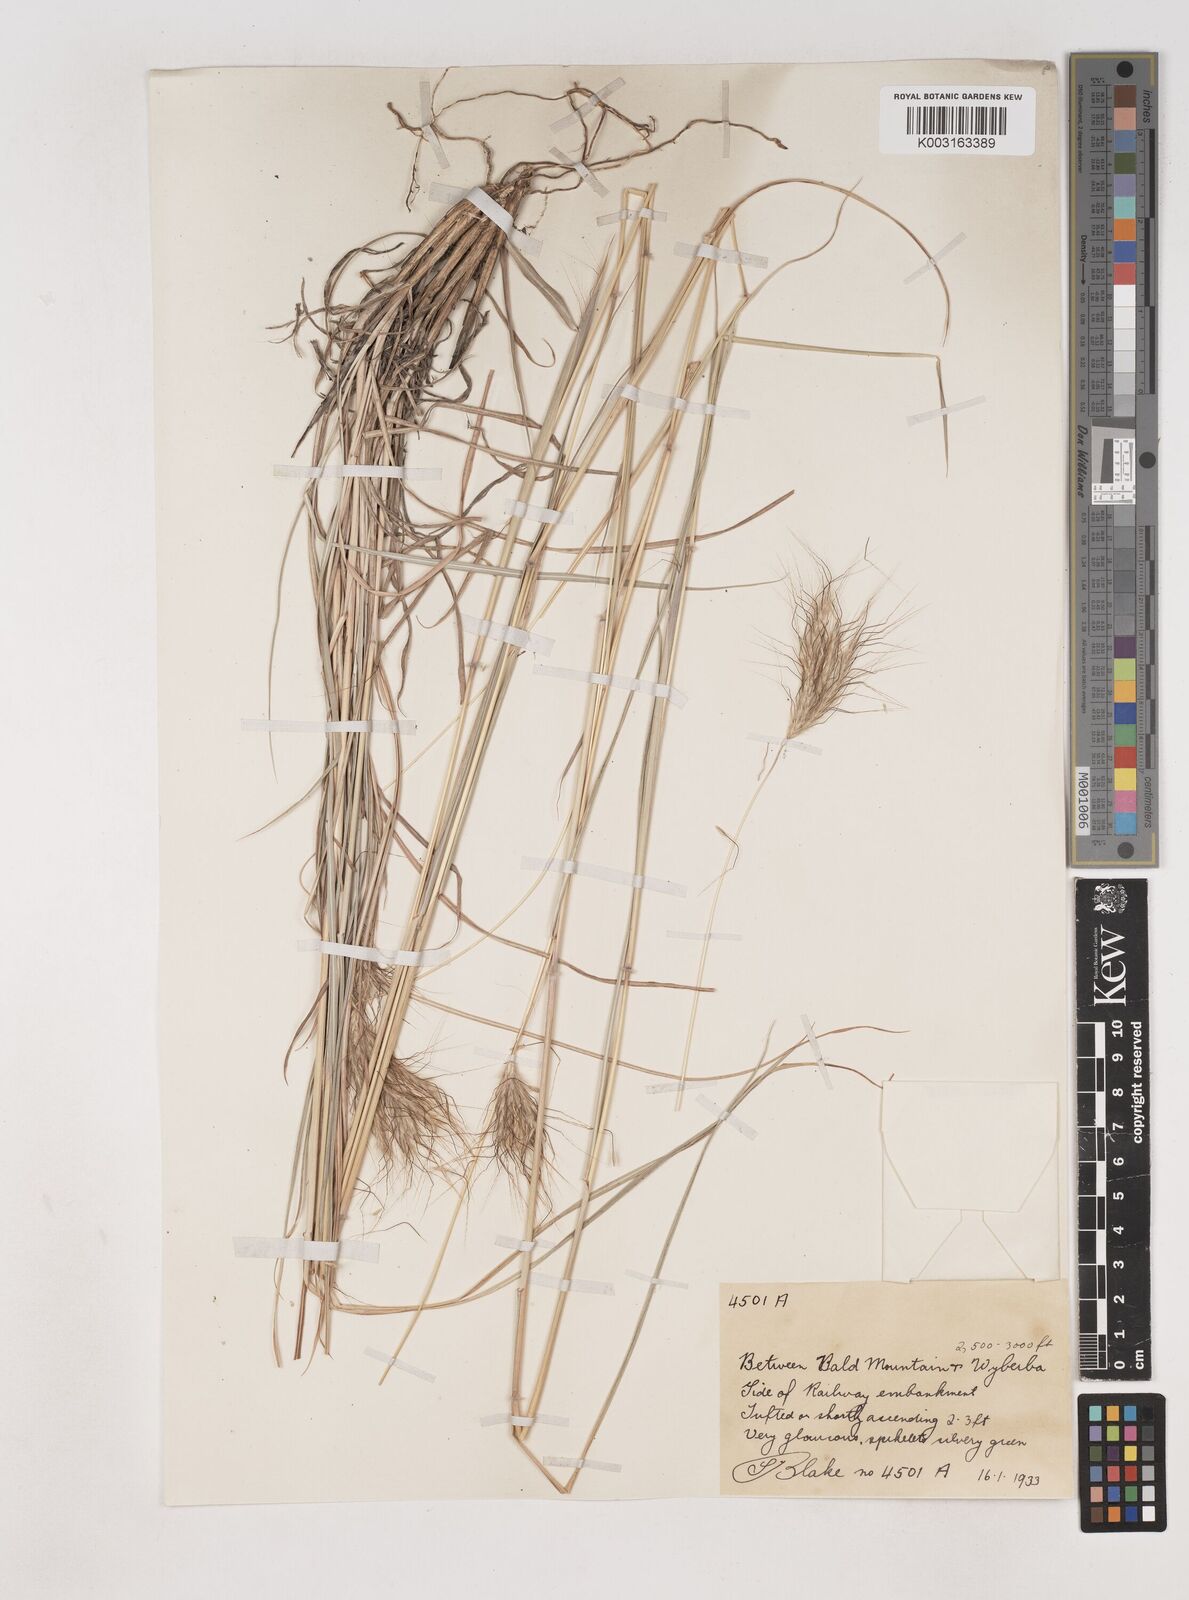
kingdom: Plantae
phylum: Tracheophyta
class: Liliopsida
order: Poales
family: Poaceae
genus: Dichanthium
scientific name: Dichanthium sericeum
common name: Silky bluestem
